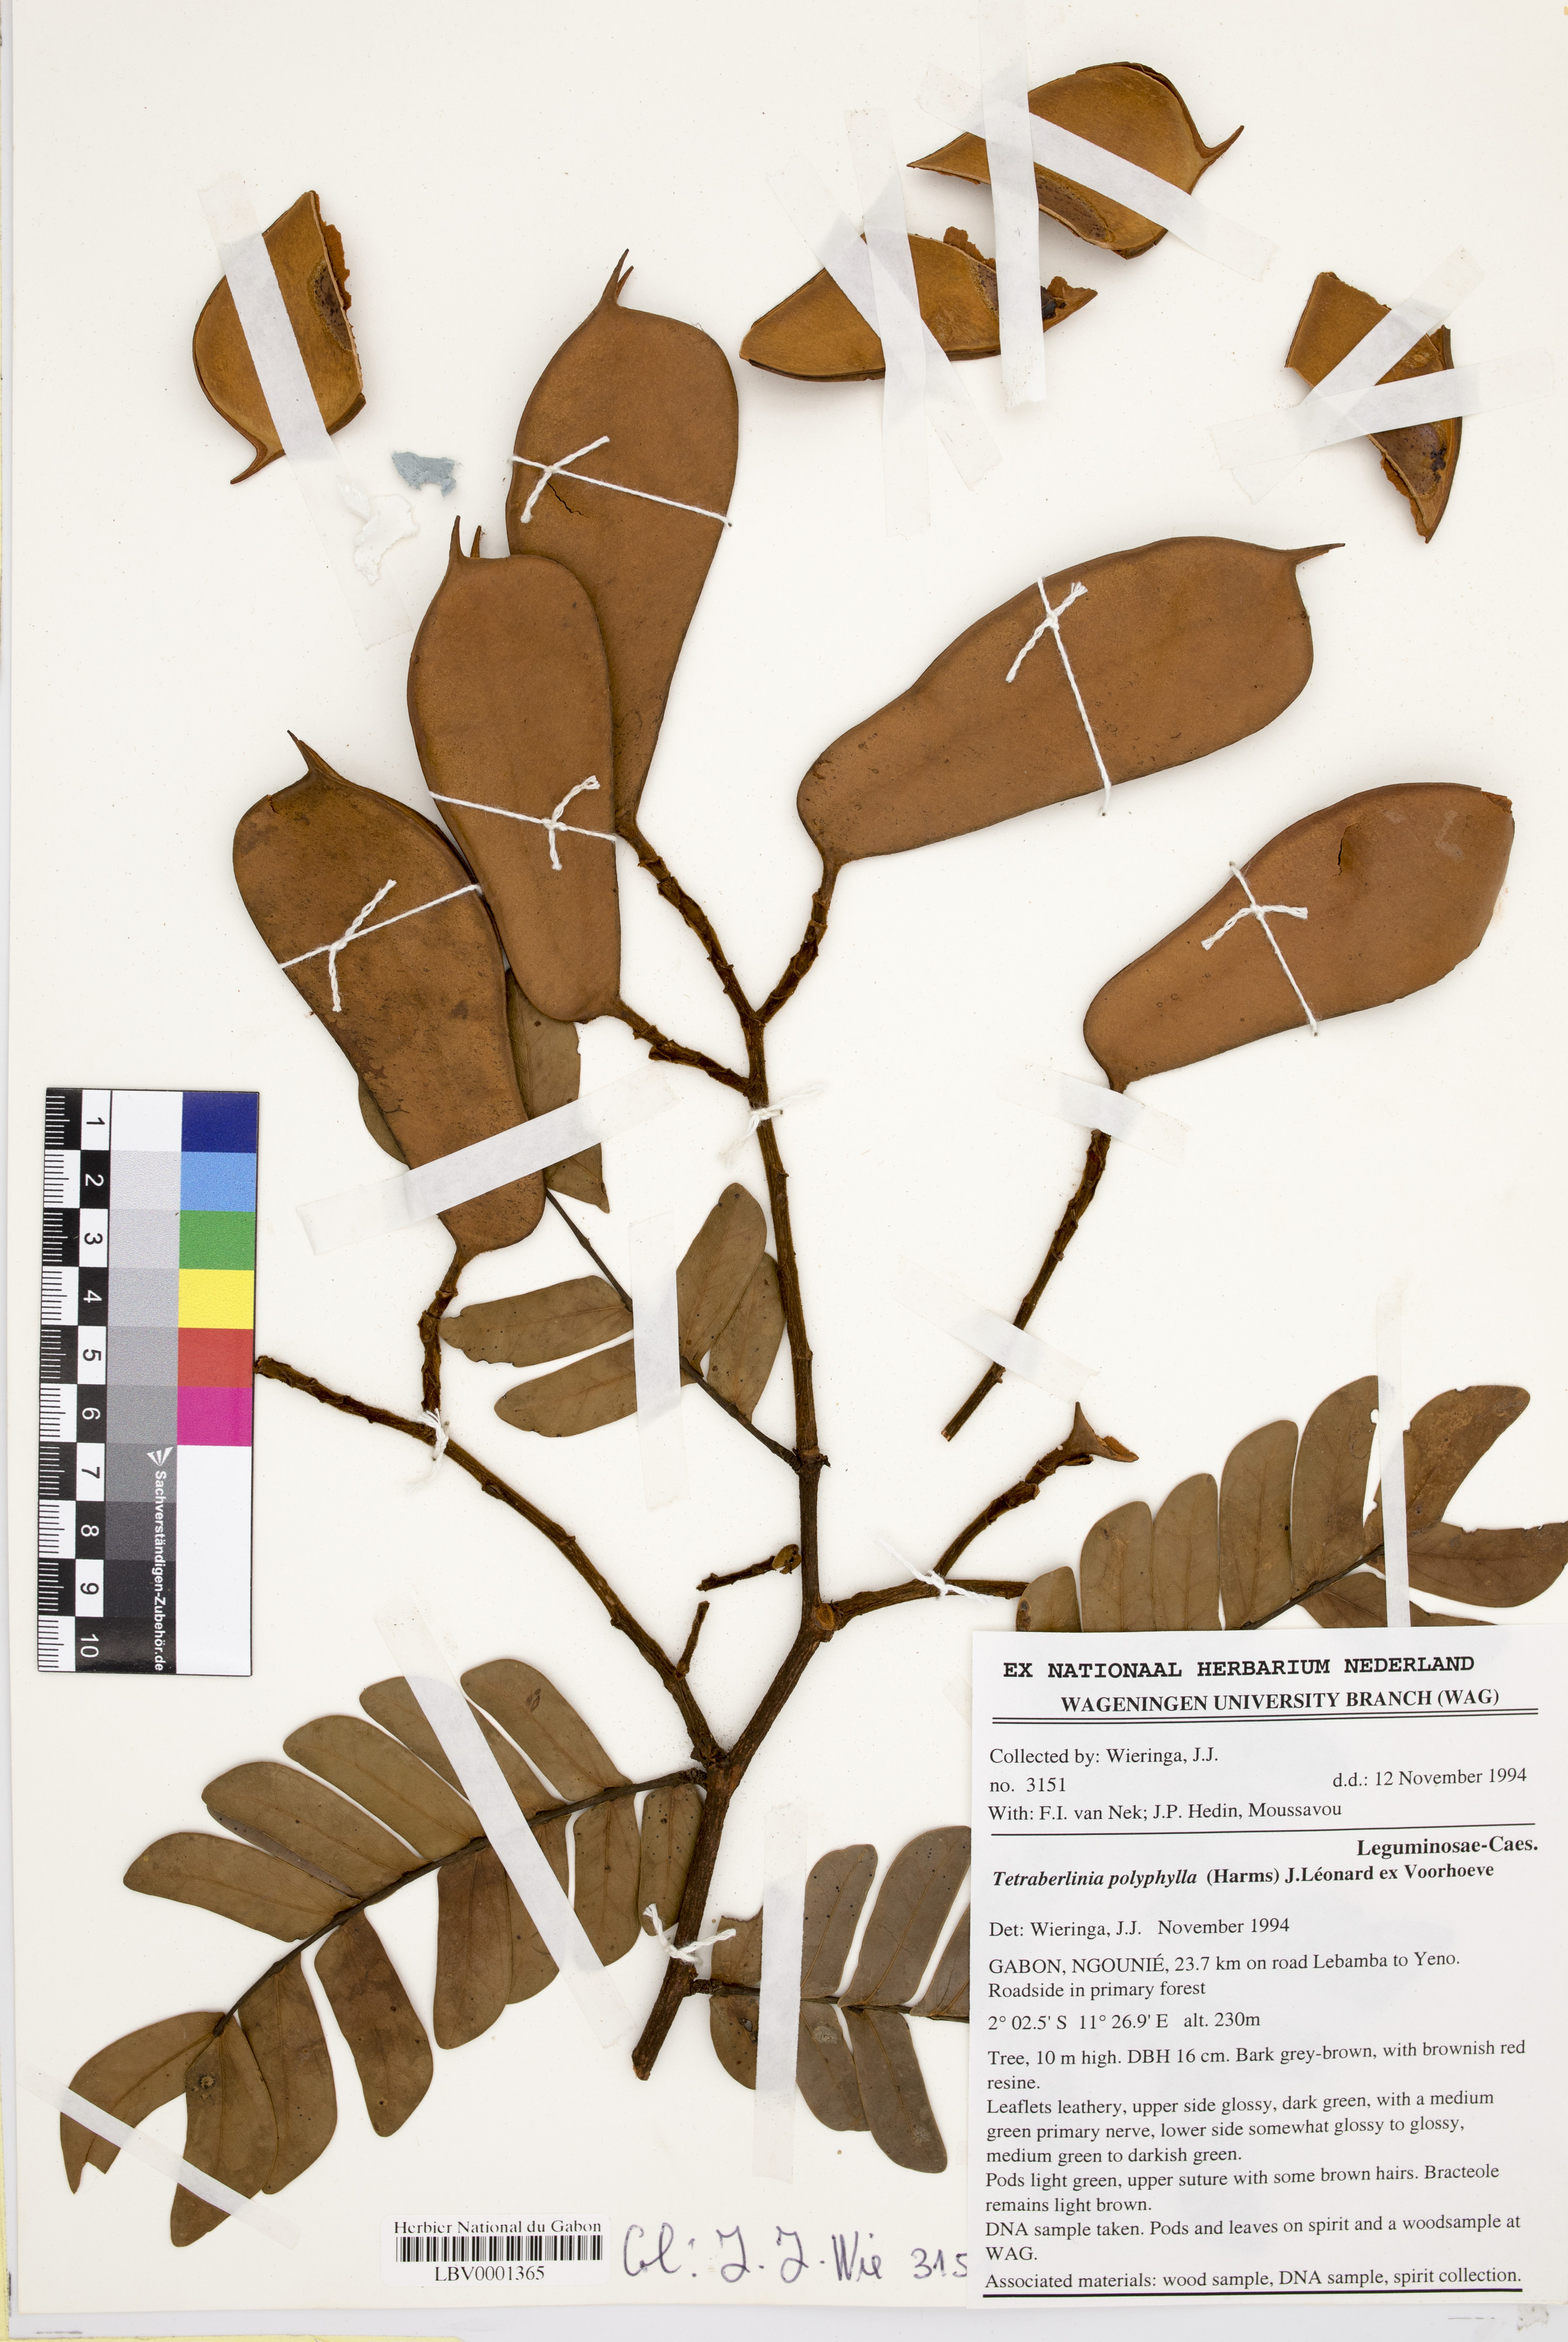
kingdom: Plantae
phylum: Tracheophyta
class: Magnoliopsida
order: Fabales
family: Fabaceae
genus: Tetraberlinia
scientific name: Tetraberlinia polyphylla
